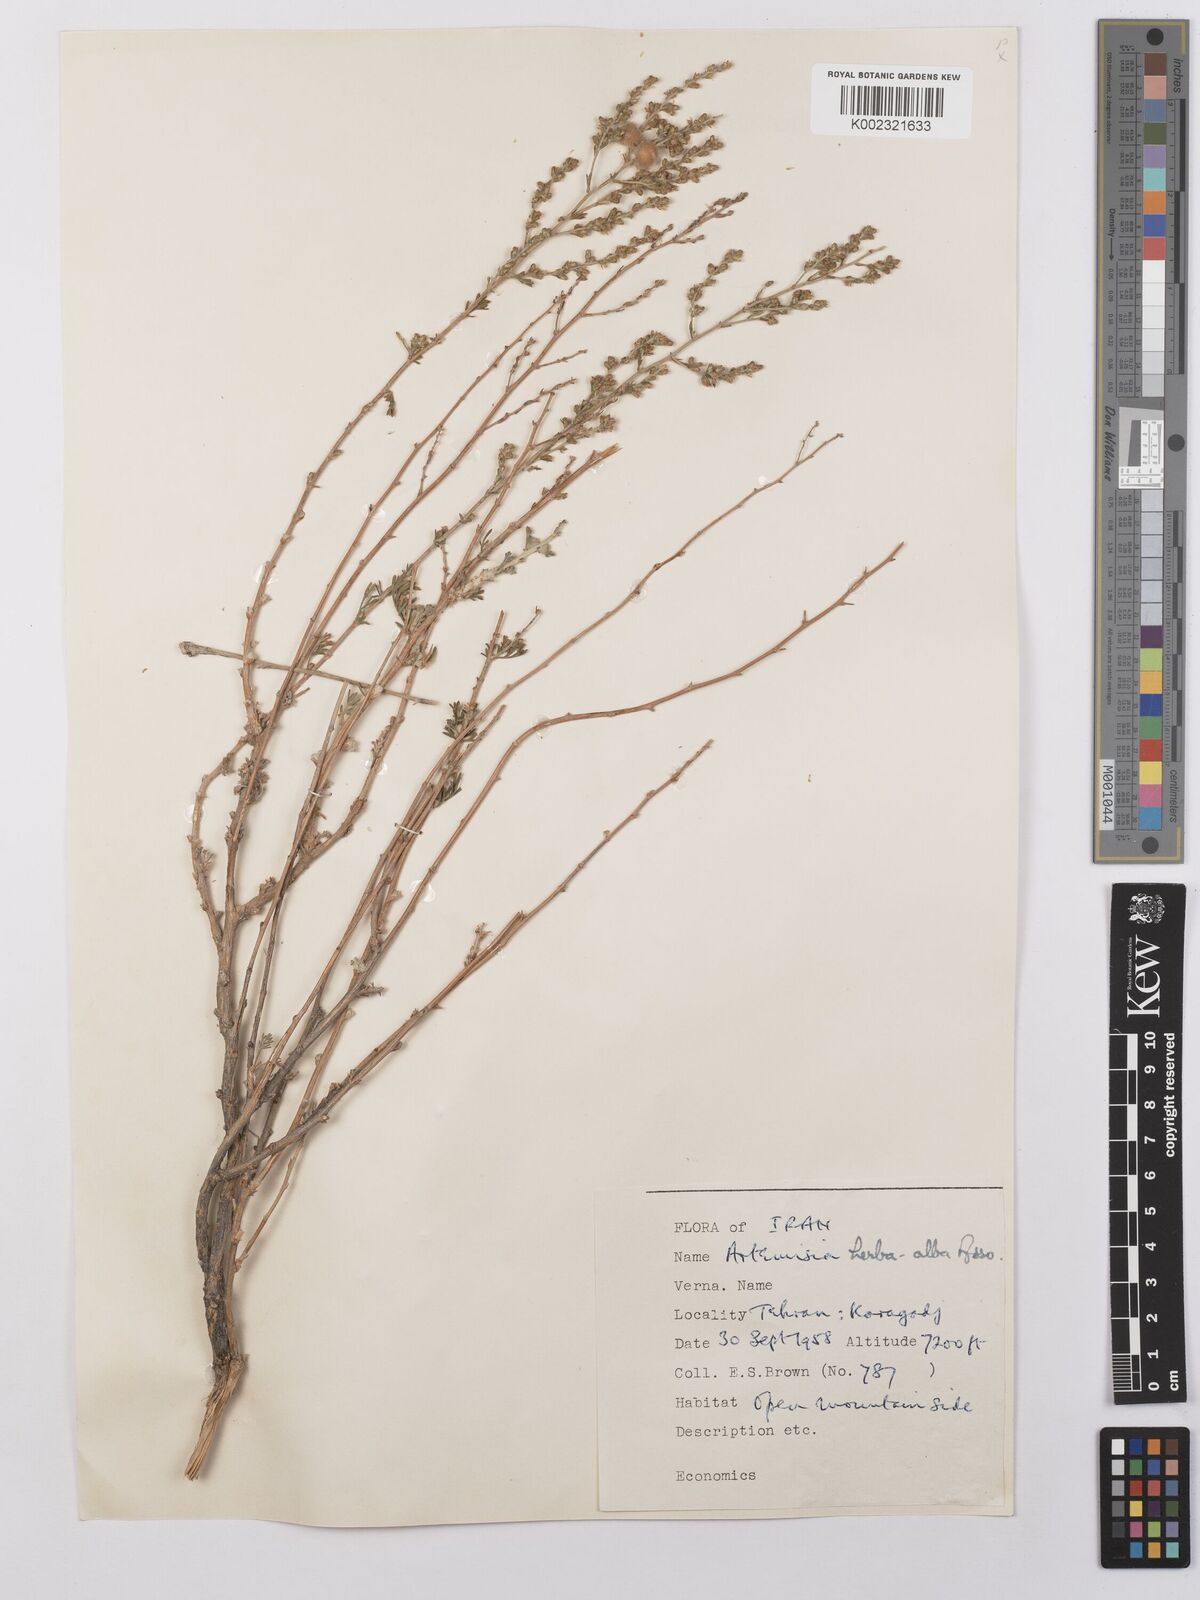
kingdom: Plantae
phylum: Tracheophyta
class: Magnoliopsida
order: Asterales
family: Asteraceae
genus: Artemisia
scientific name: Artemisia herba-alba
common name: White wormwood
